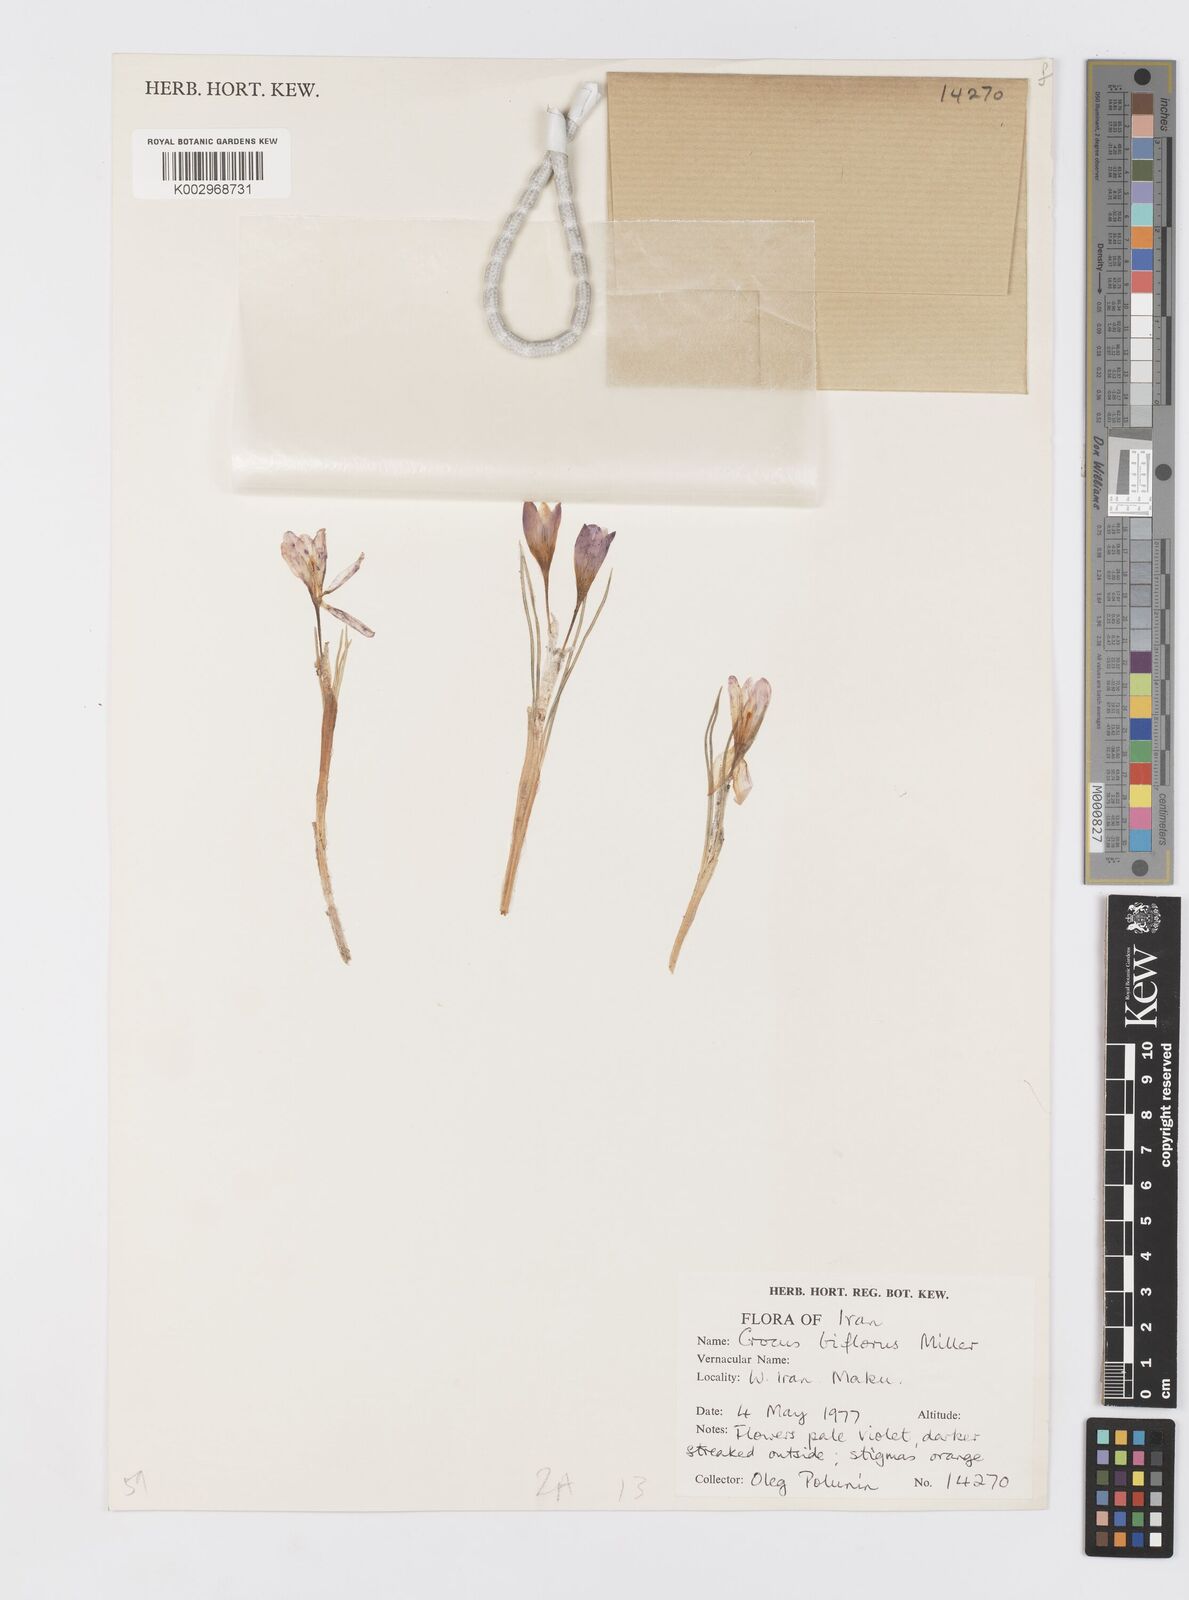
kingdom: Plantae
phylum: Tracheophyta
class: Liliopsida
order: Asparagales
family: Iridaceae
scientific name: Iridaceae
